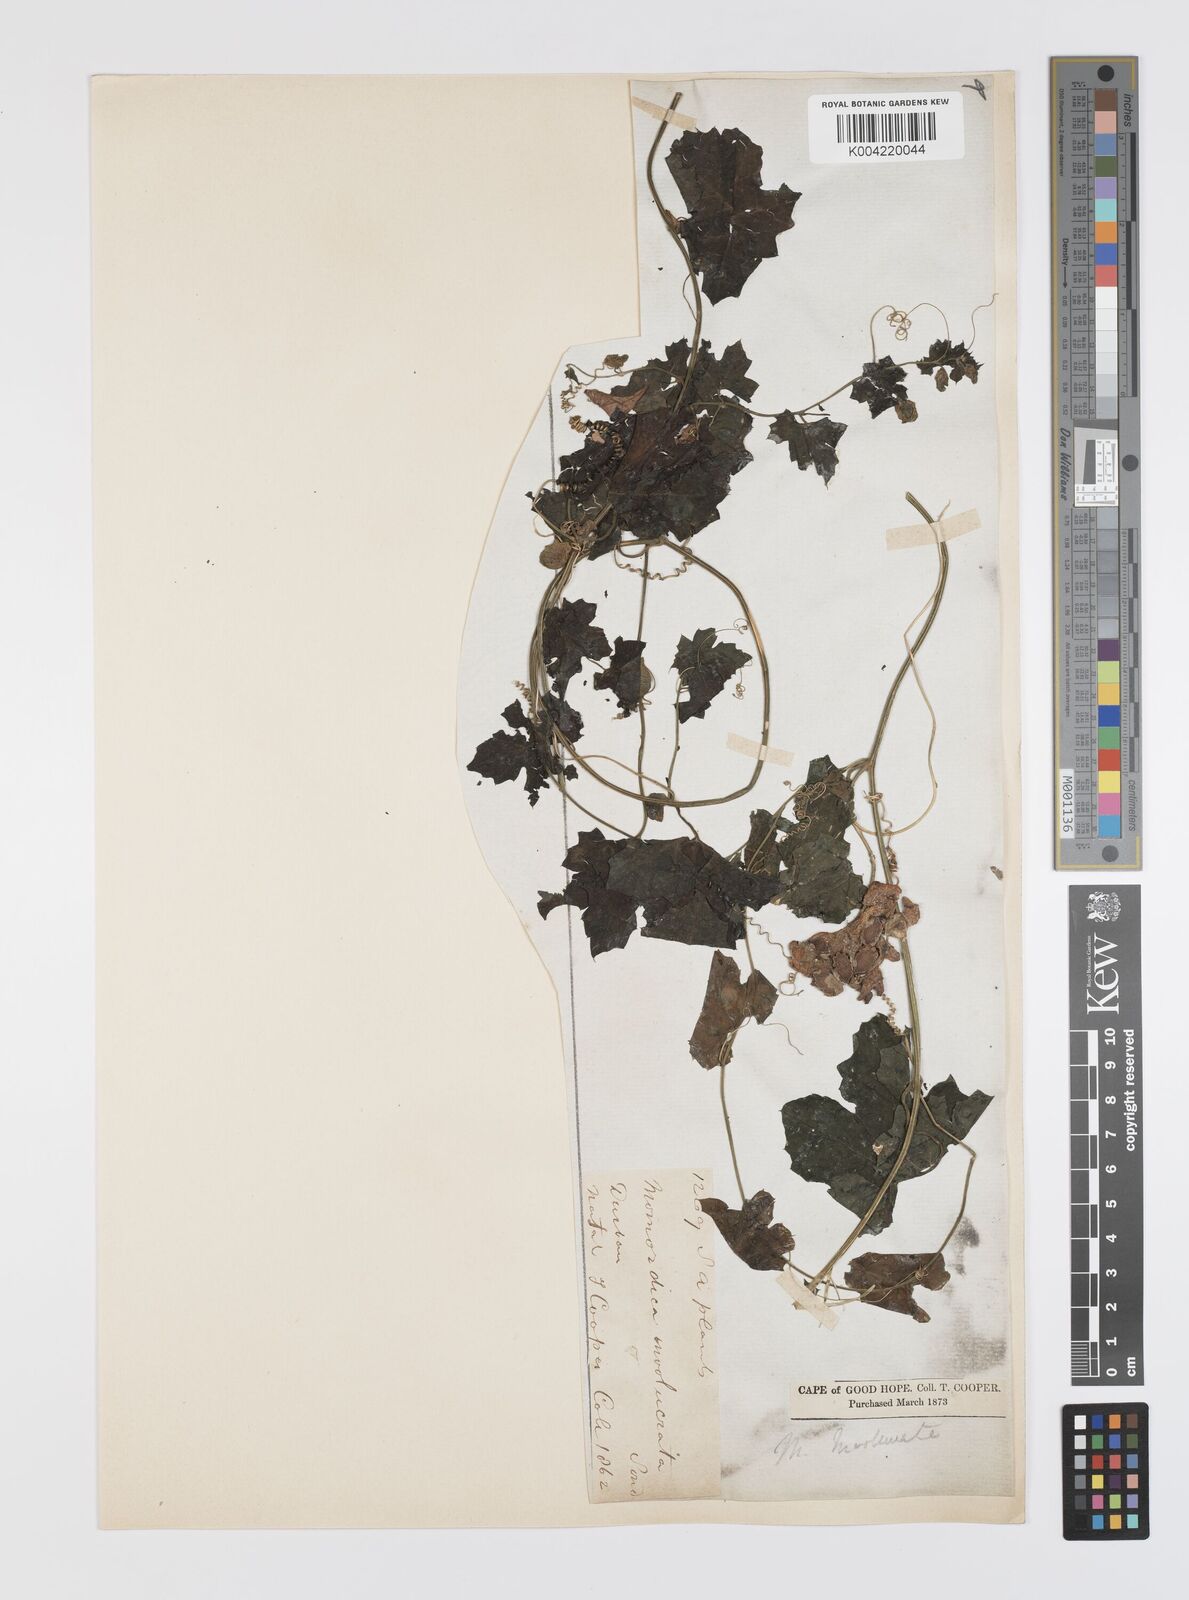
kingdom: Plantae
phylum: Tracheophyta
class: Magnoliopsida
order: Cucurbitales
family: Cucurbitaceae
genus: Momordica
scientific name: Momordica balsamina
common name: Southern balsampear
